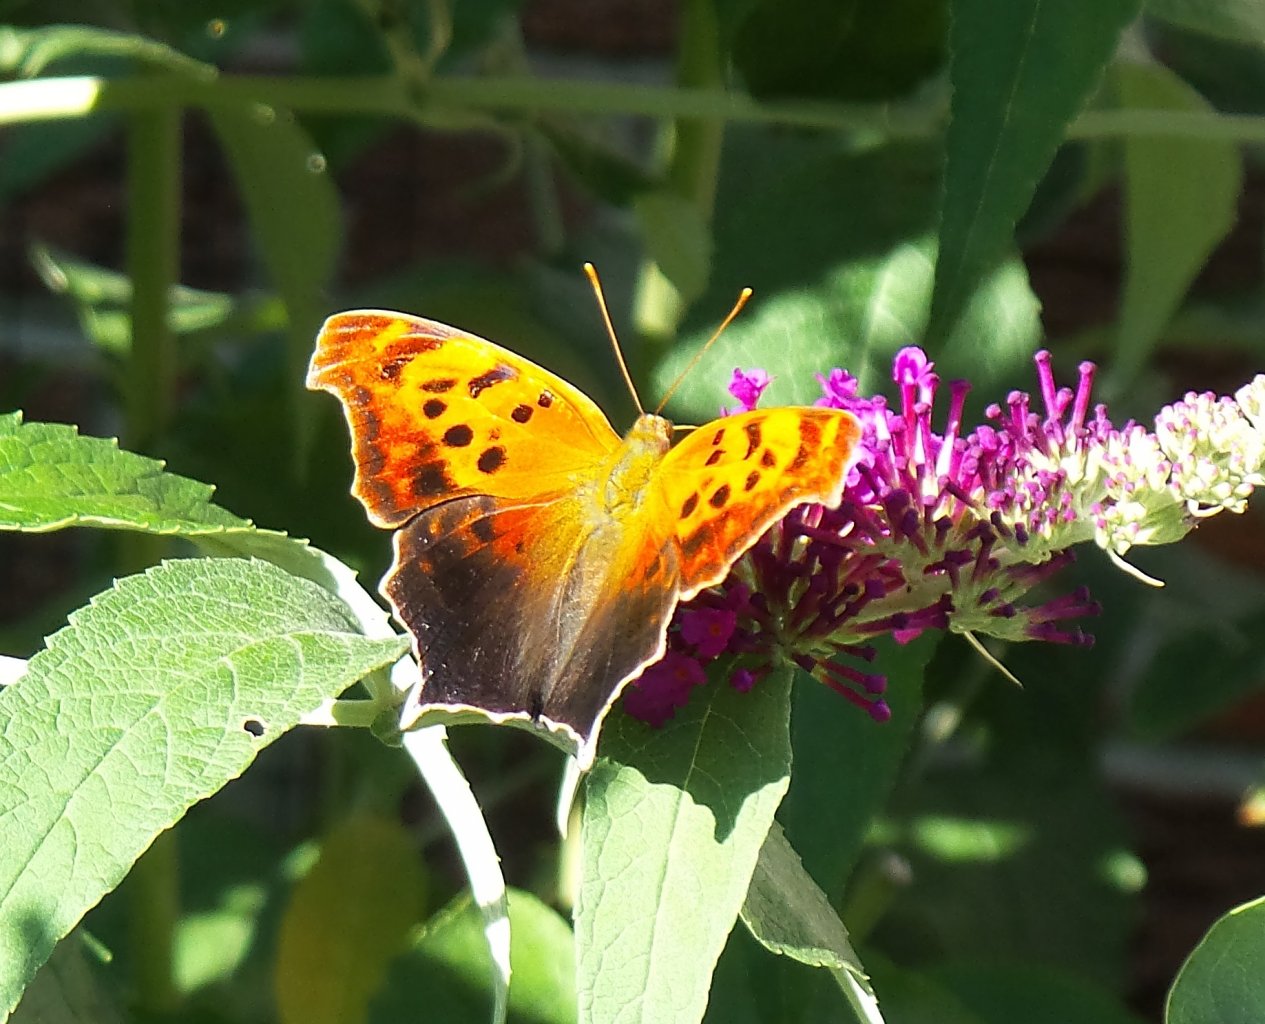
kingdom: Animalia
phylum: Arthropoda
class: Insecta
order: Lepidoptera
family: Nymphalidae
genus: Polygonia
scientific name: Polygonia interrogationis
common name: Question Mark
